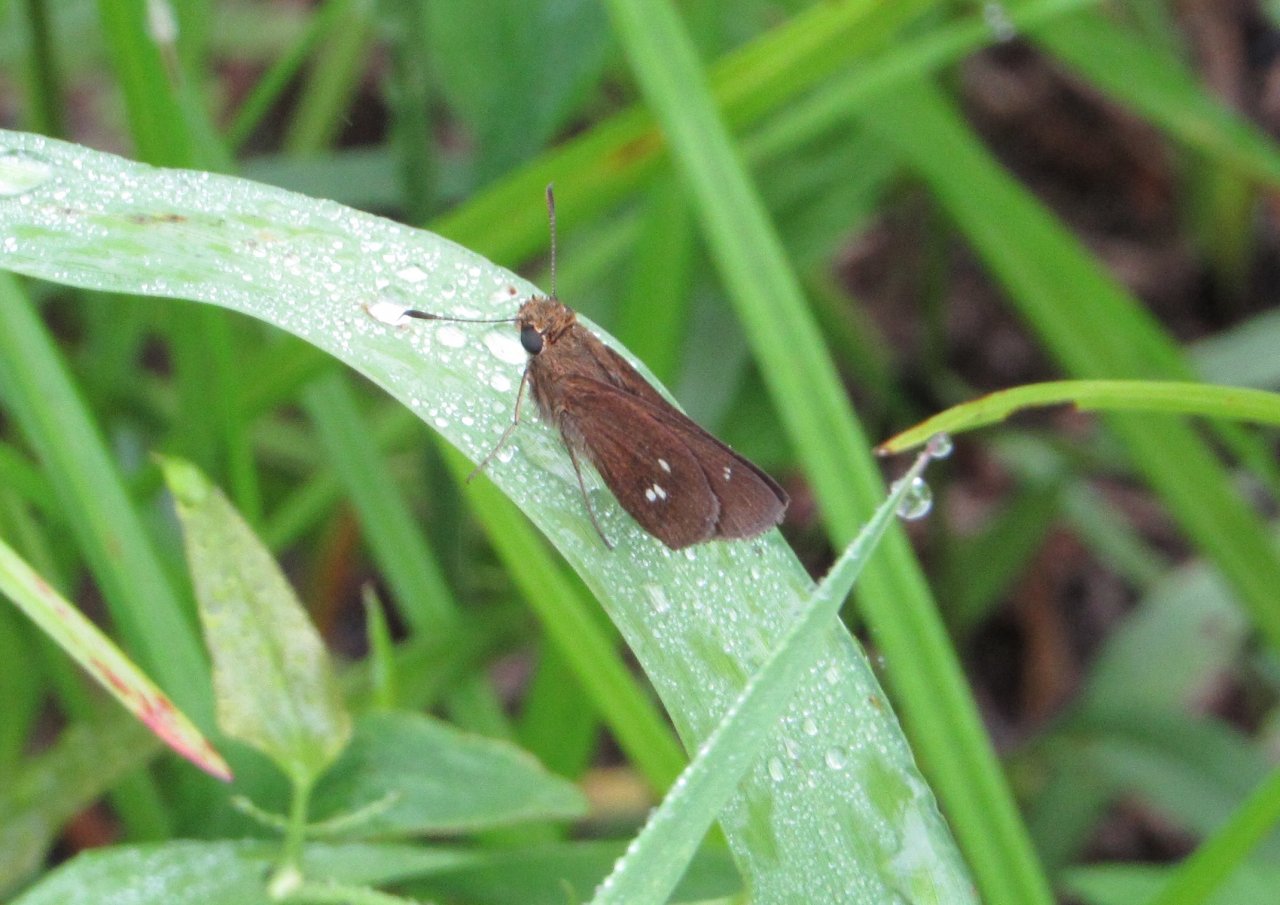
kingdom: Animalia
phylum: Arthropoda
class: Insecta
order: Lepidoptera
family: Hesperiidae
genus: Oligoria
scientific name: Oligoria maculata
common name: Twin-spot Skipper
